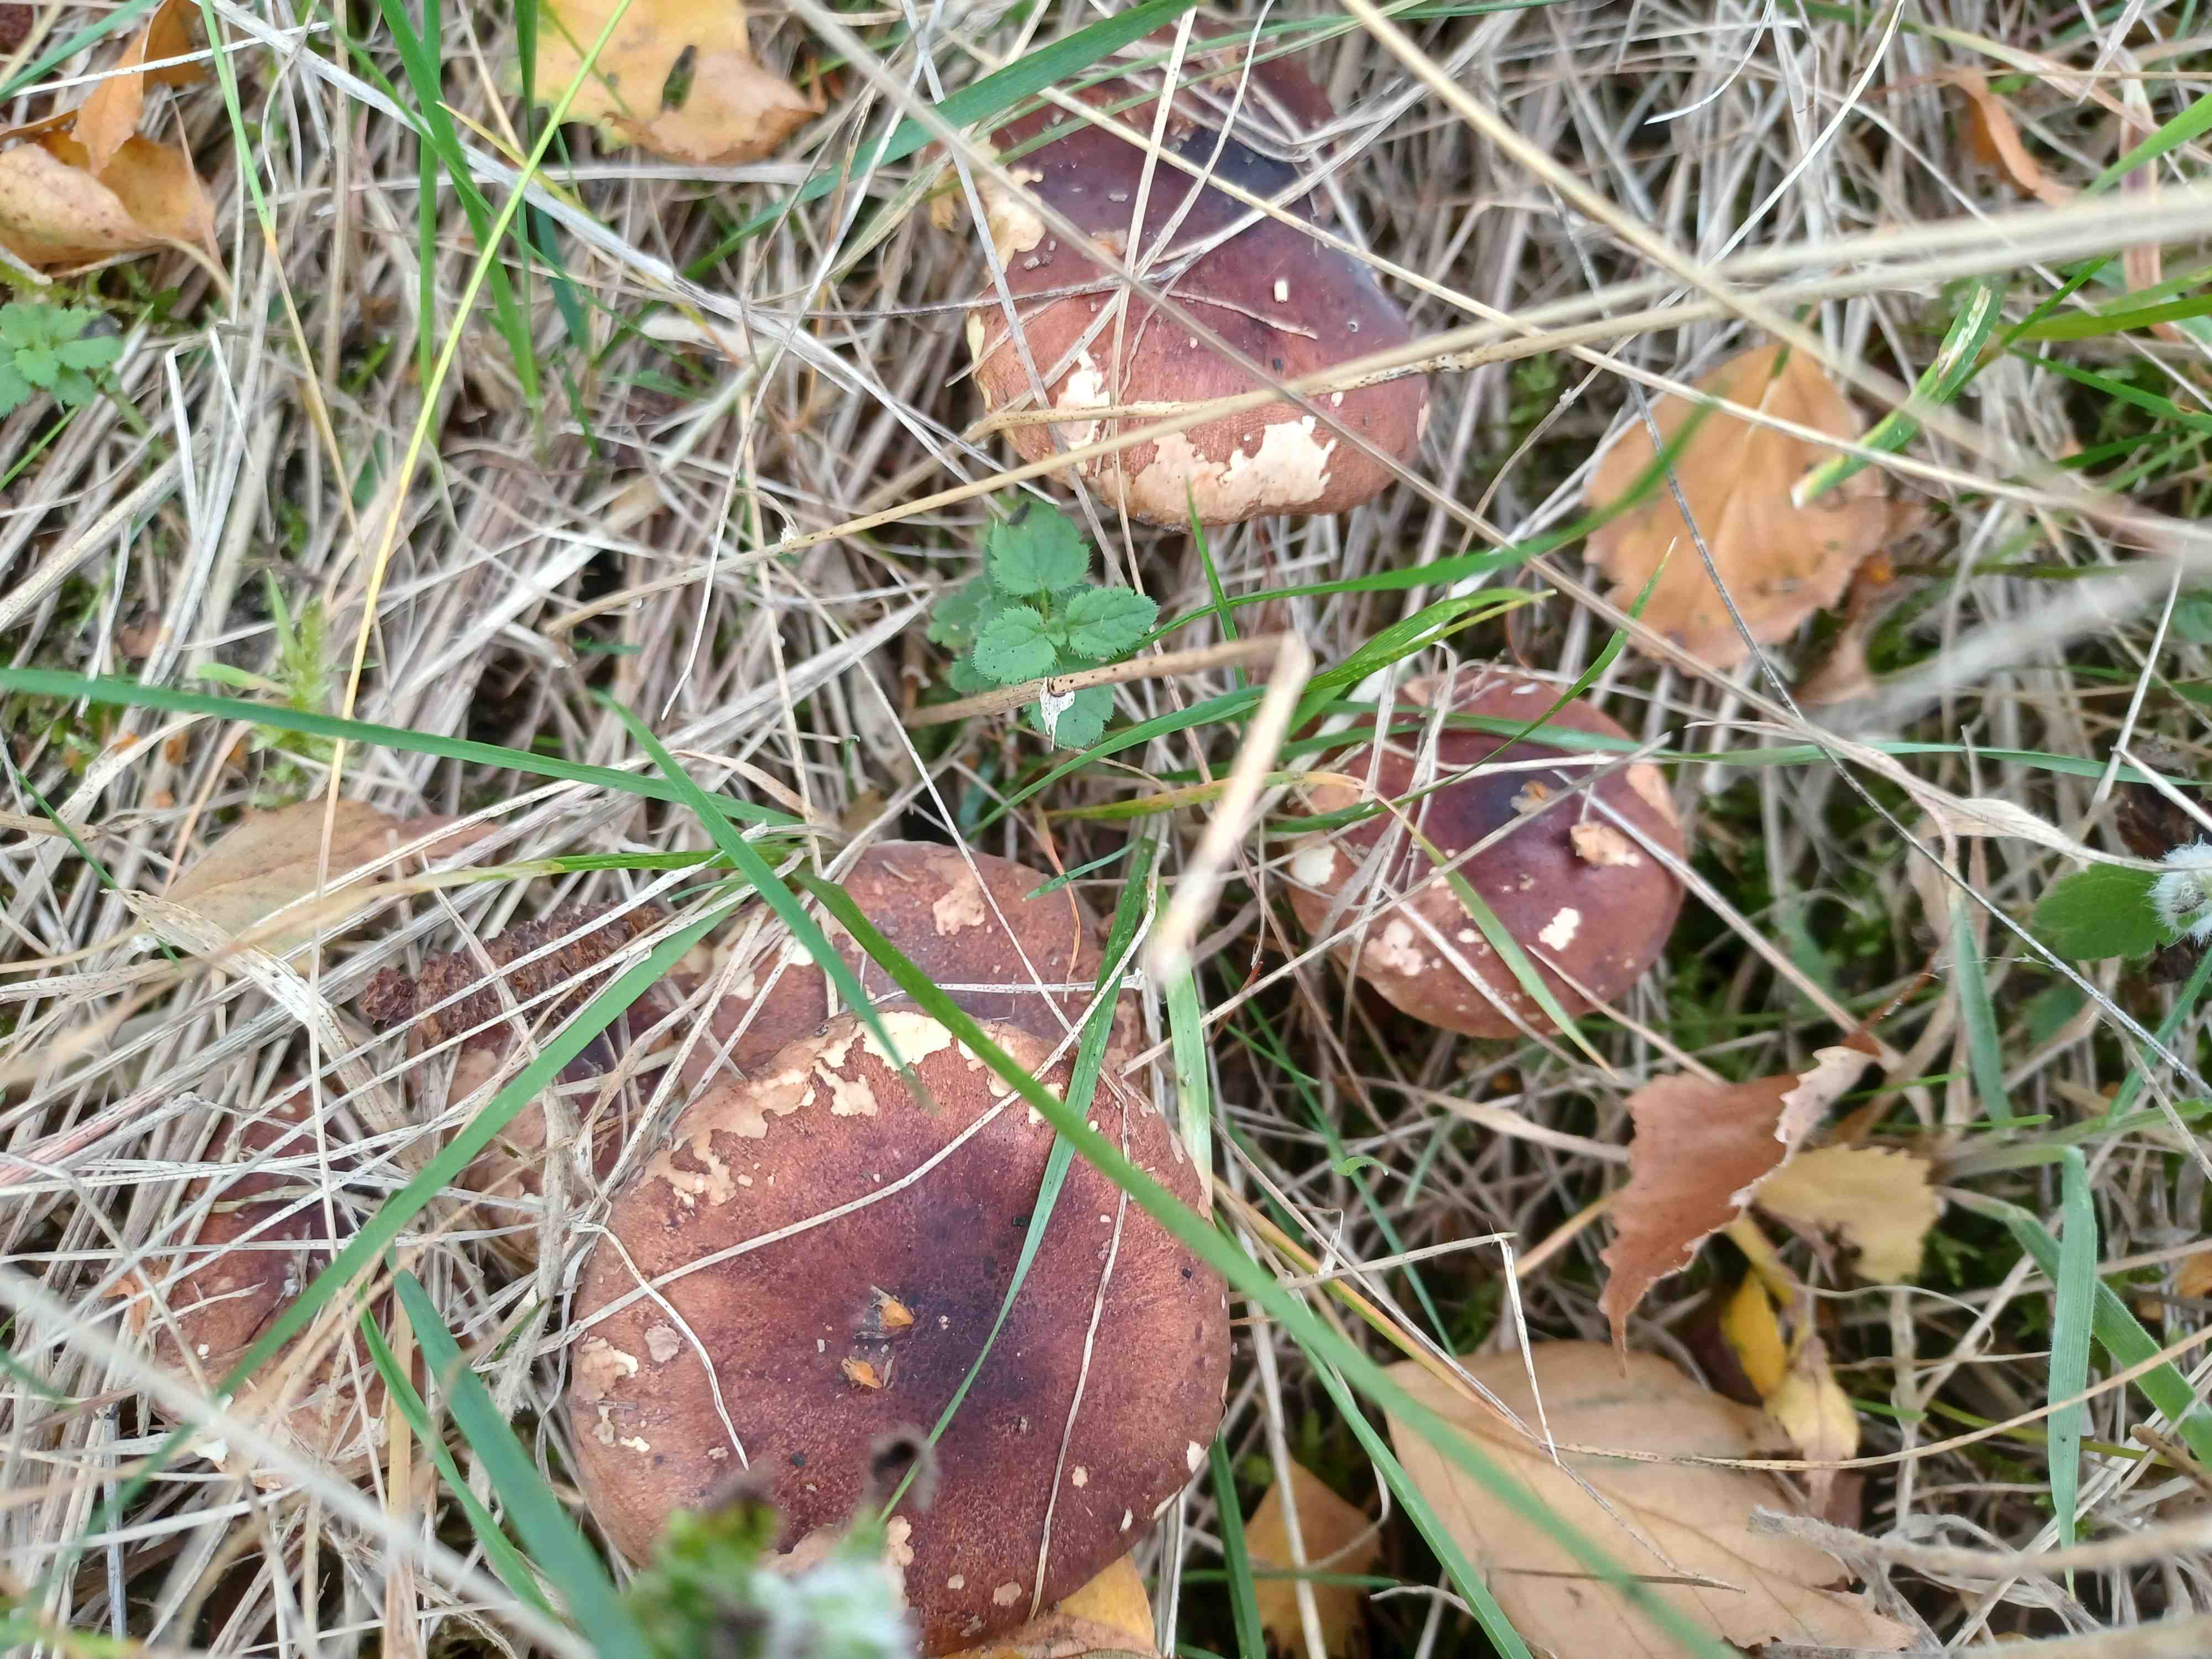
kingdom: Fungi
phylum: Basidiomycota
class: Agaricomycetes
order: Agaricales
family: Tricholomataceae
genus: Tricholoma
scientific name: Tricholoma fulvum
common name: birke-ridderhat
